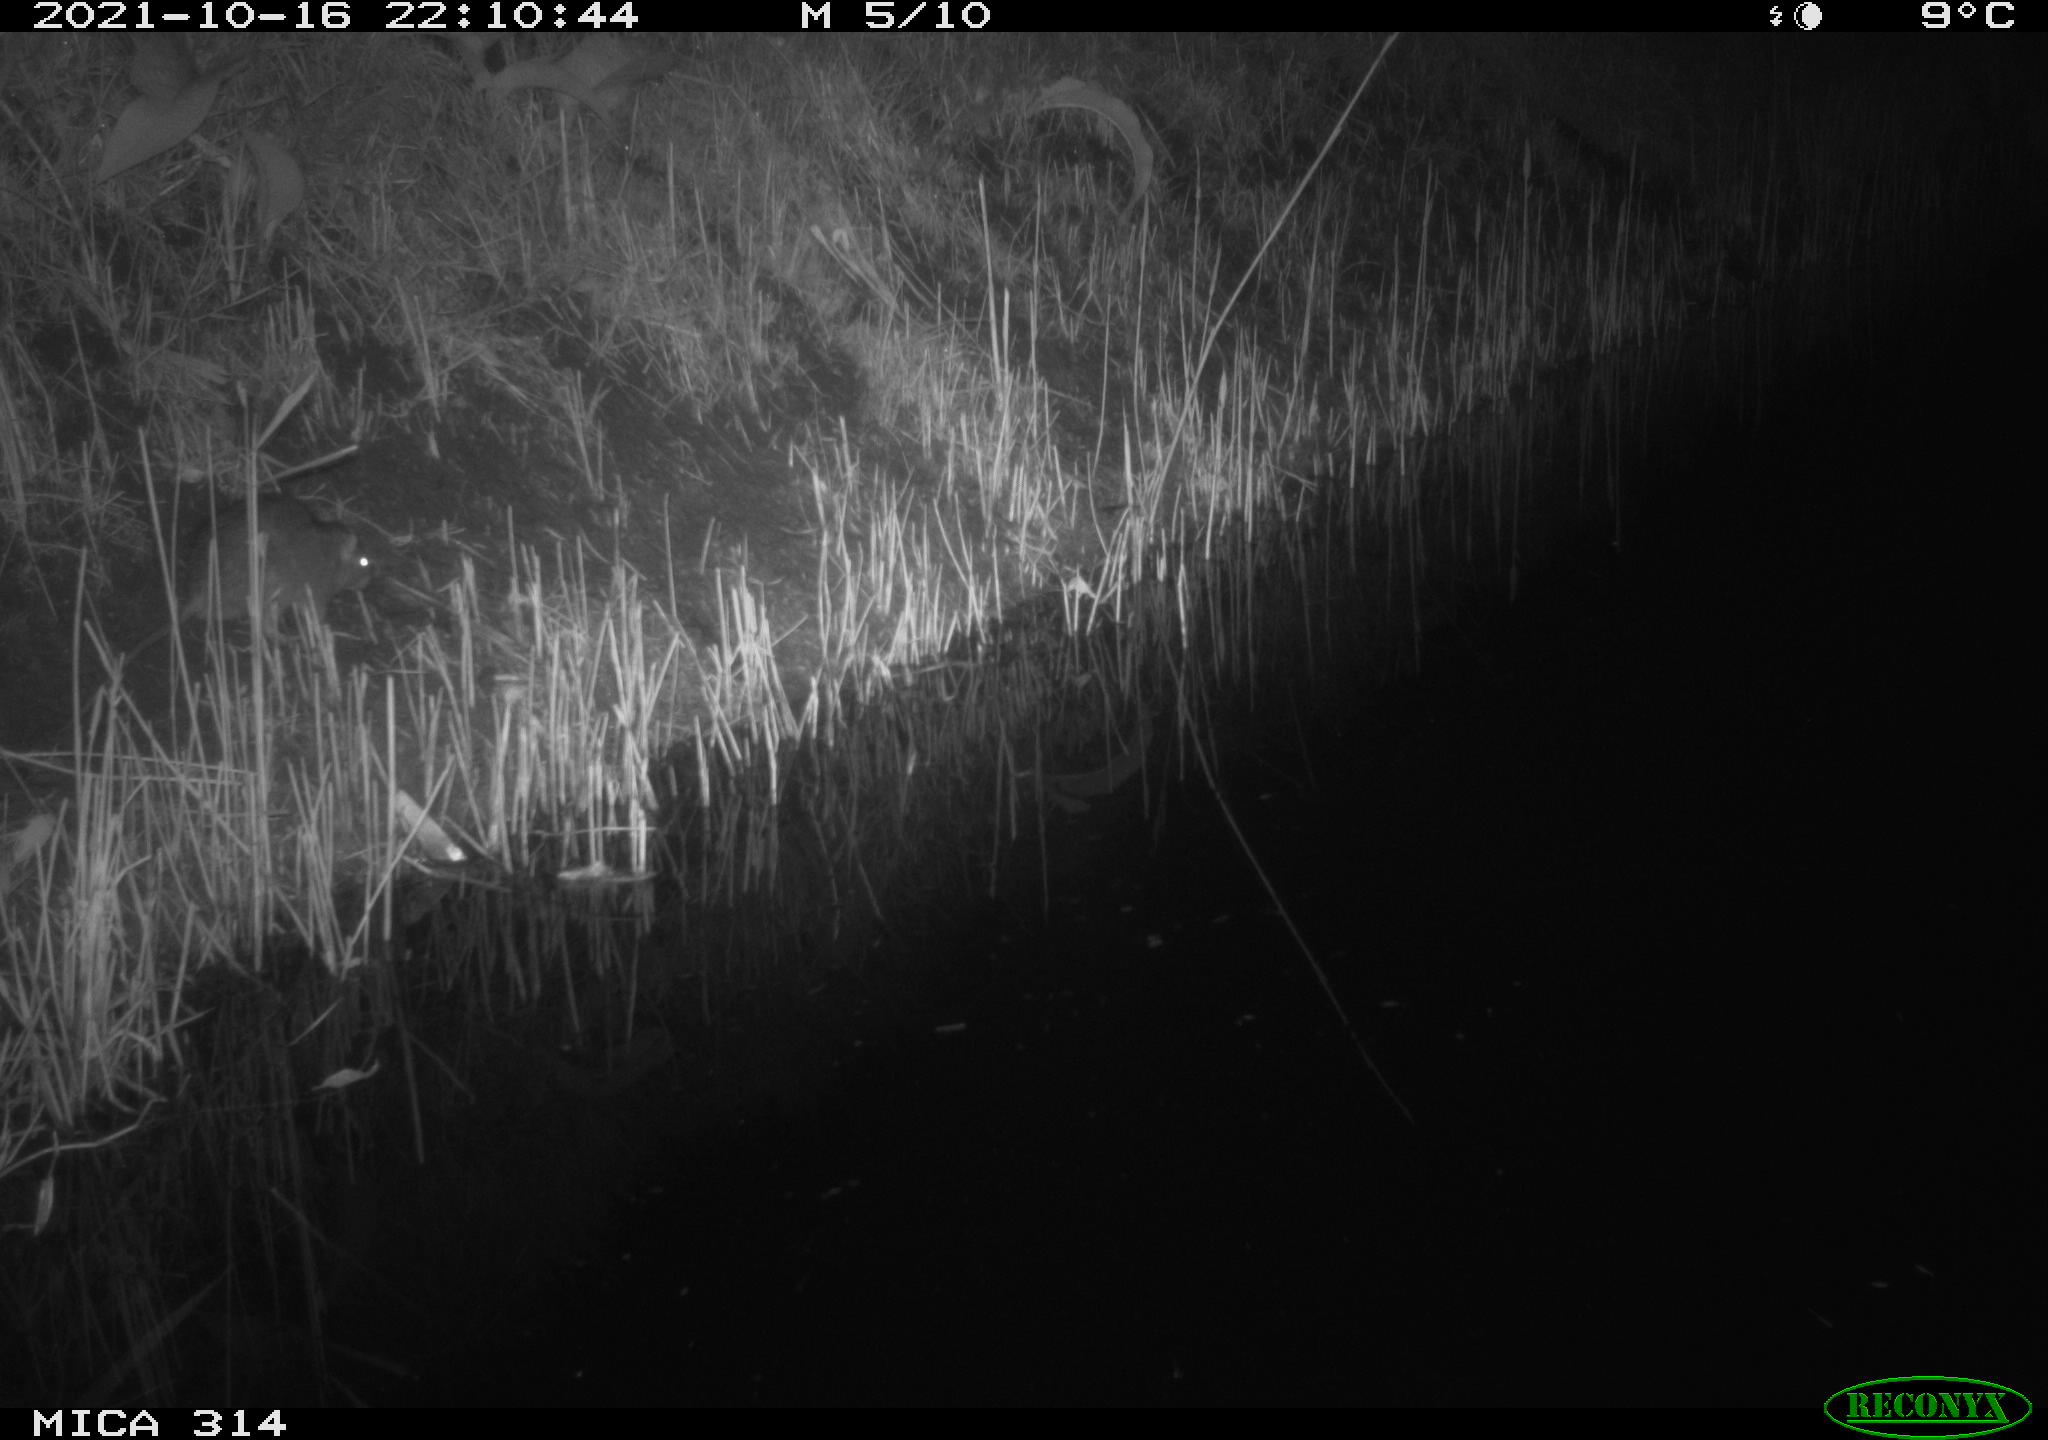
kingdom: Animalia
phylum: Chordata
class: Mammalia
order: Rodentia
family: Muridae
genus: Rattus
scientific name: Rattus norvegicus
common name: Brown rat
